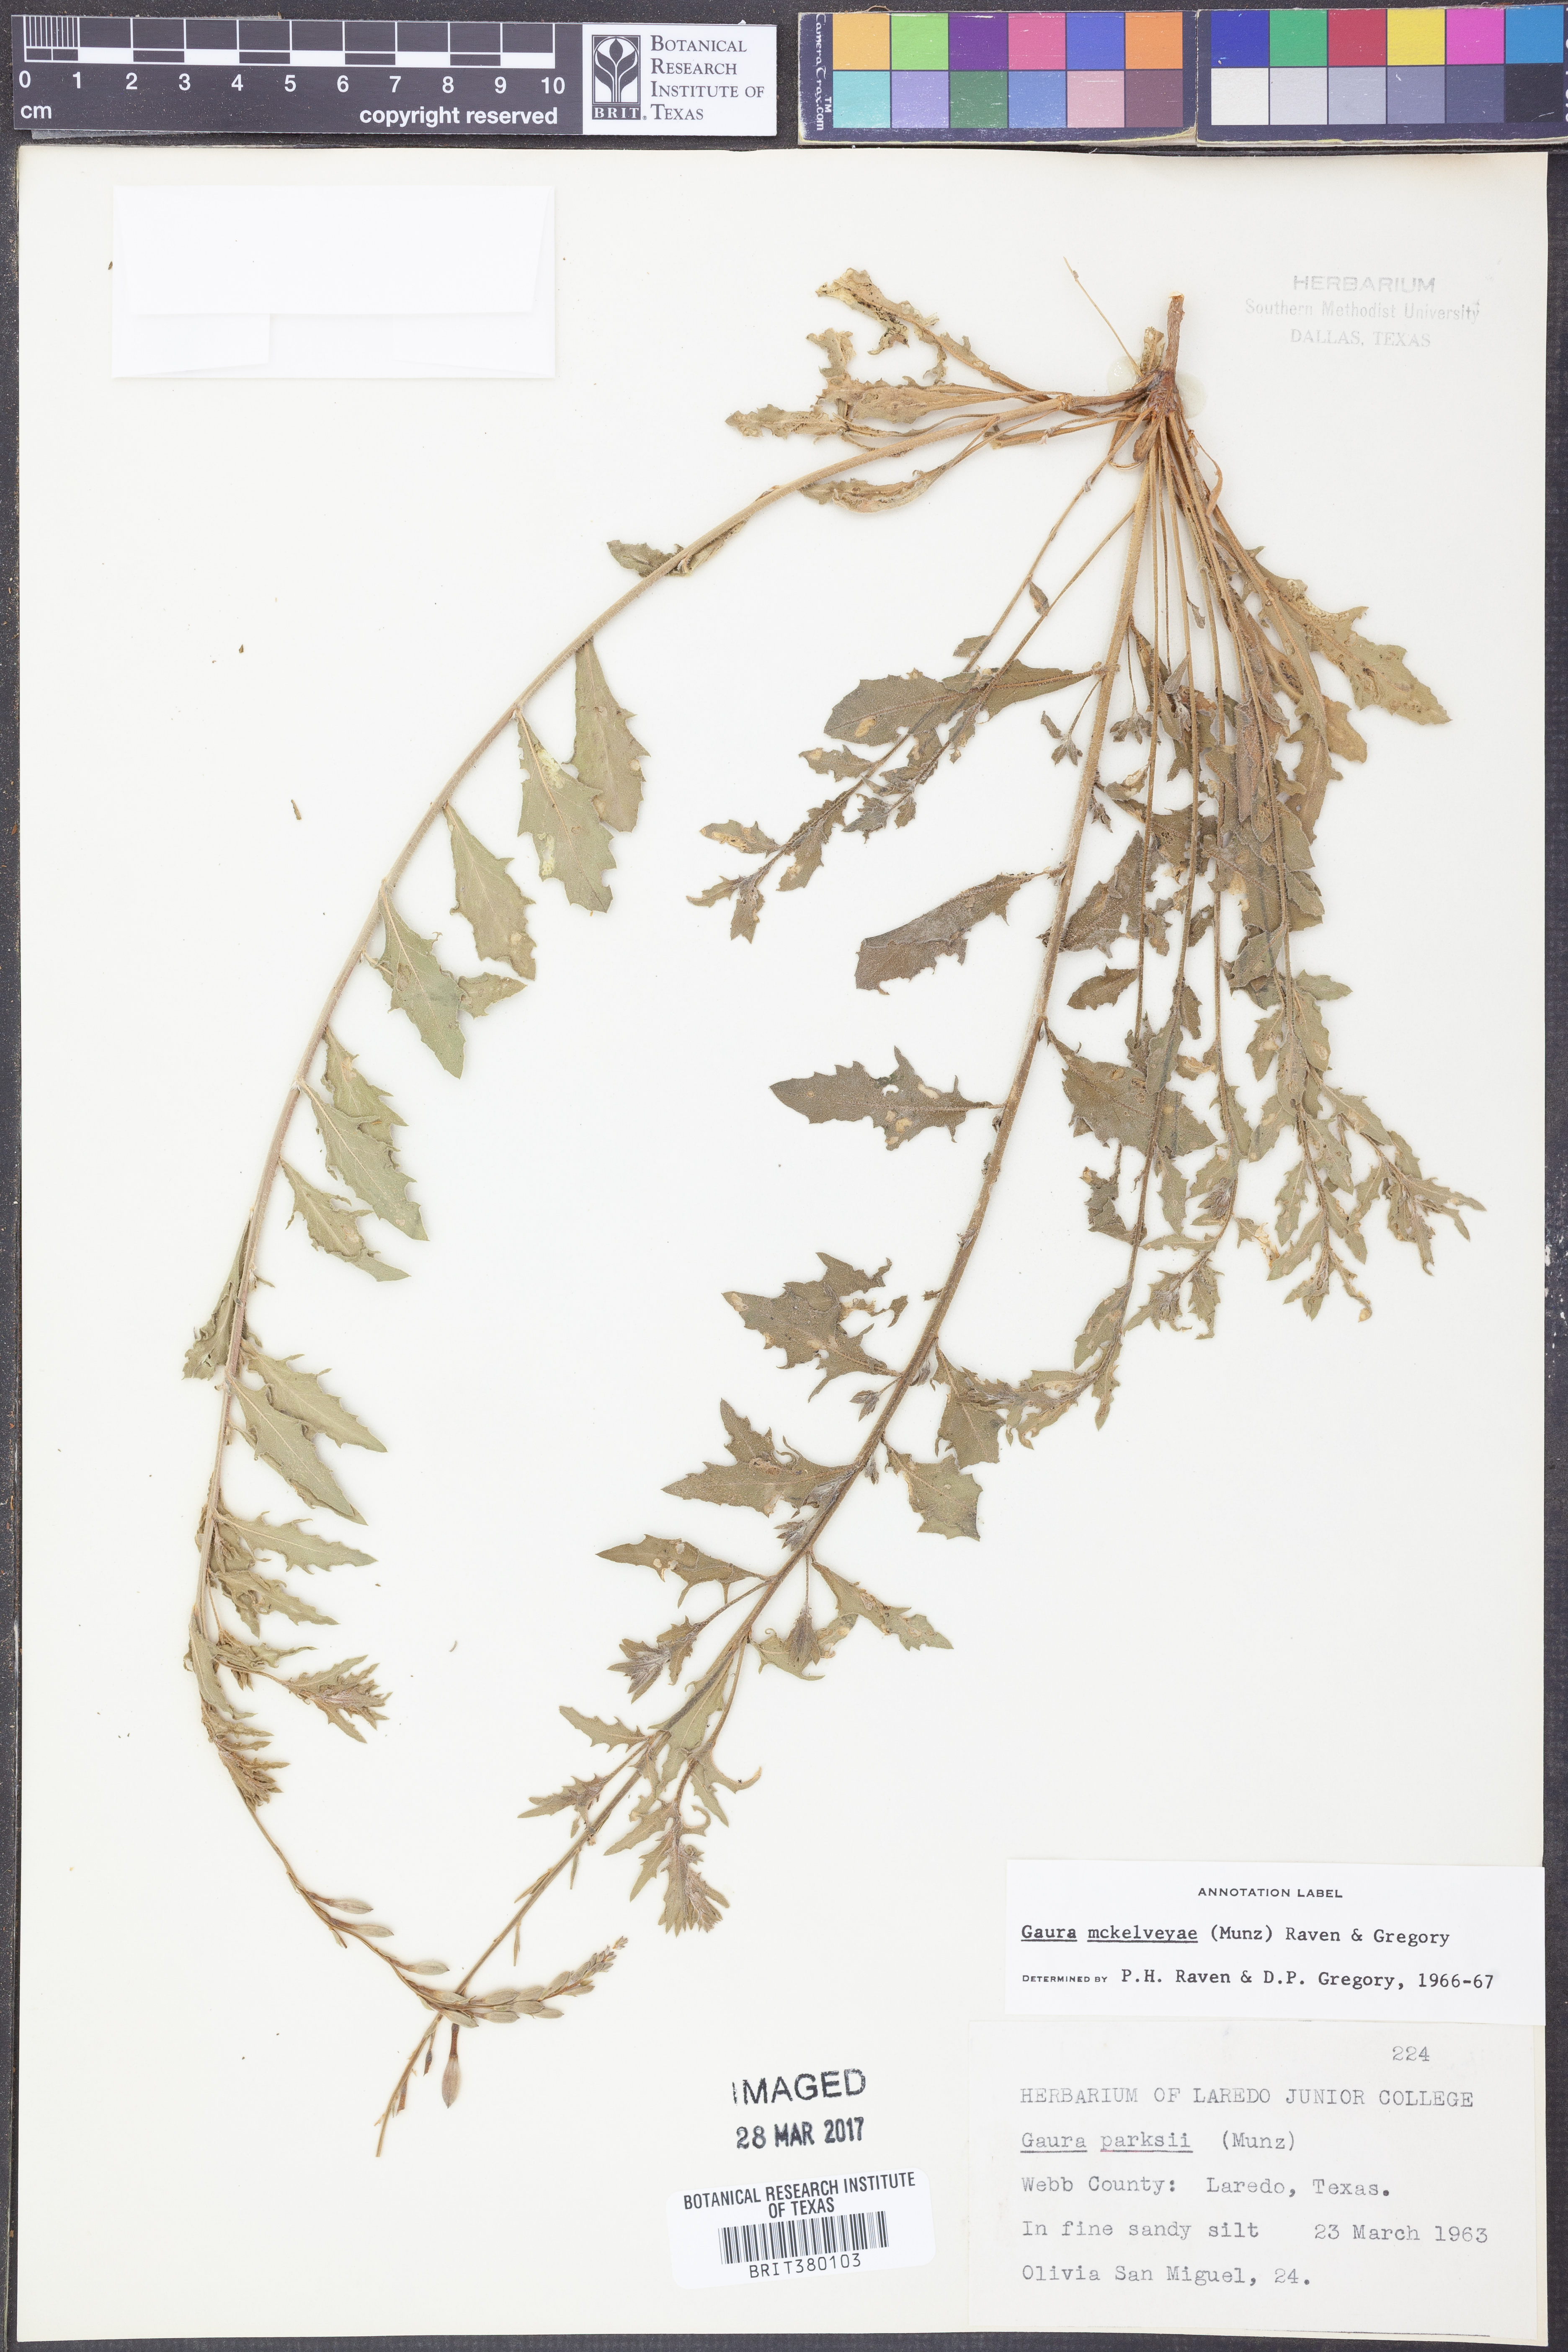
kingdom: Plantae
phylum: Tracheophyta
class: Magnoliopsida
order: Myrtales
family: Onagraceae
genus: Oenothera
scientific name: Oenothera mckelveyae
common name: Mckelvey's beeblossom
